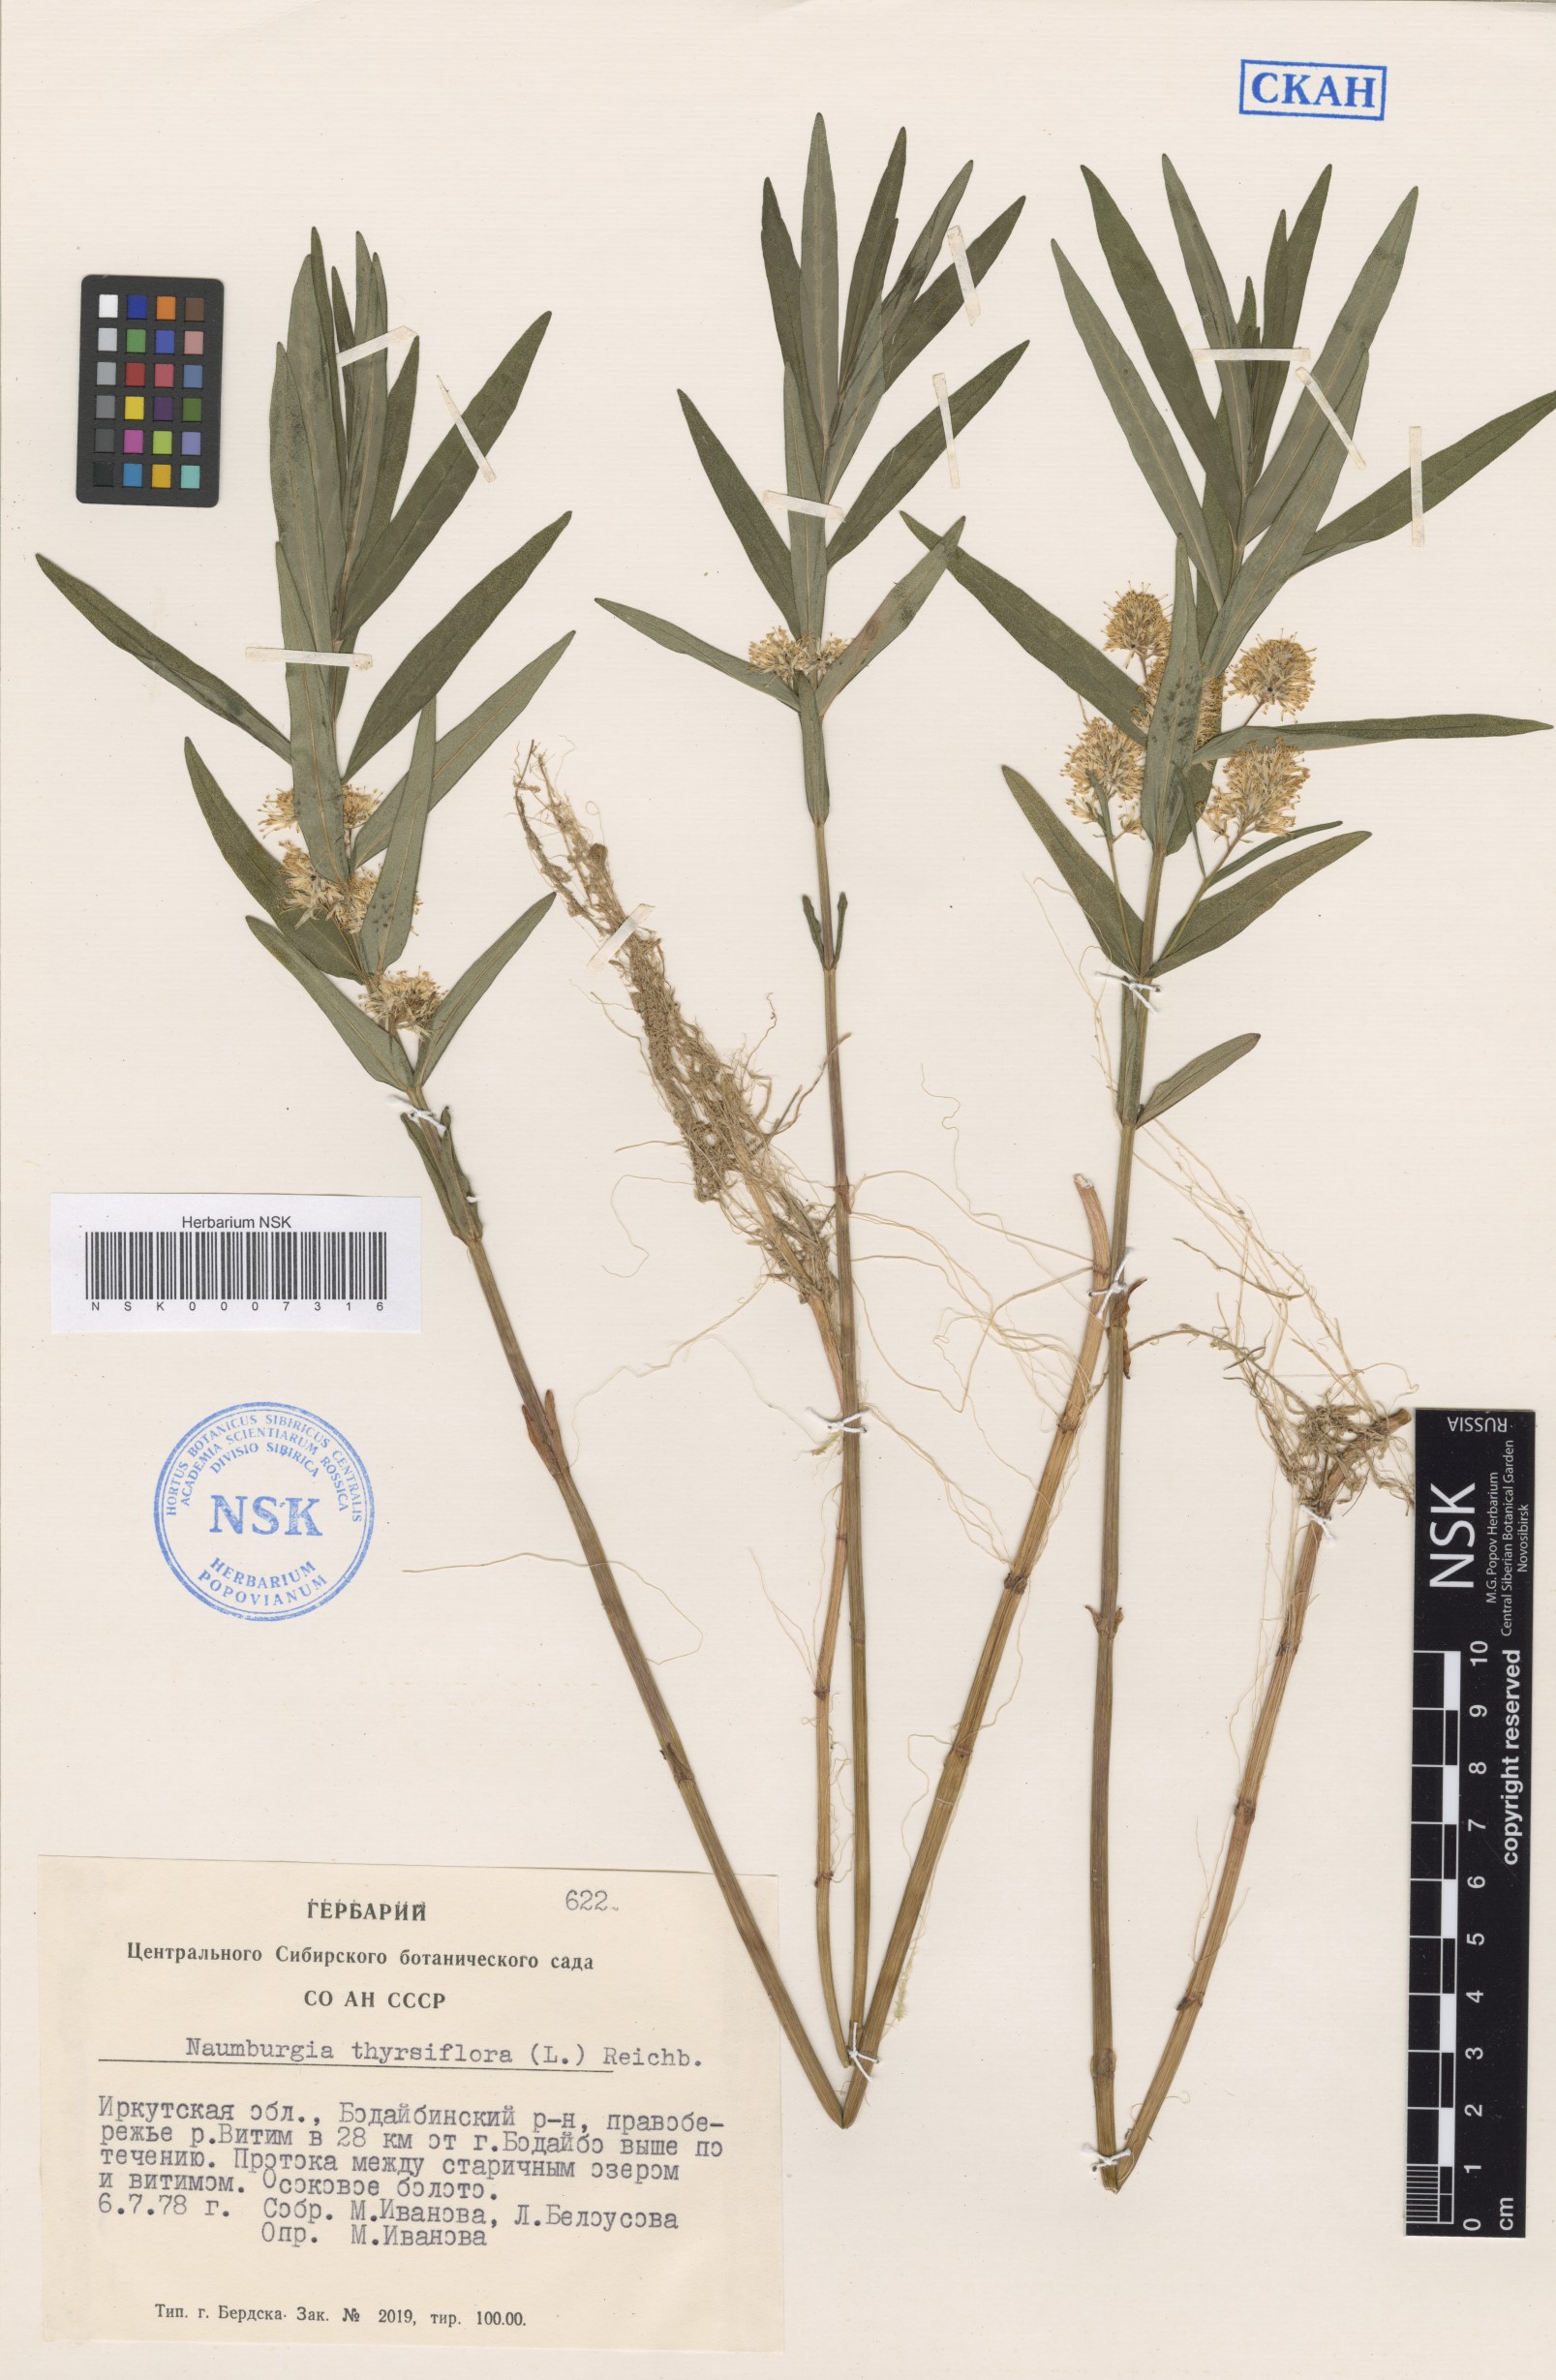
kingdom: Plantae
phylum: Tracheophyta
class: Magnoliopsida
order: Ericales
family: Primulaceae
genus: Lysimachia
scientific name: Lysimachia thyrsiflora
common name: Tufted loosestrife
